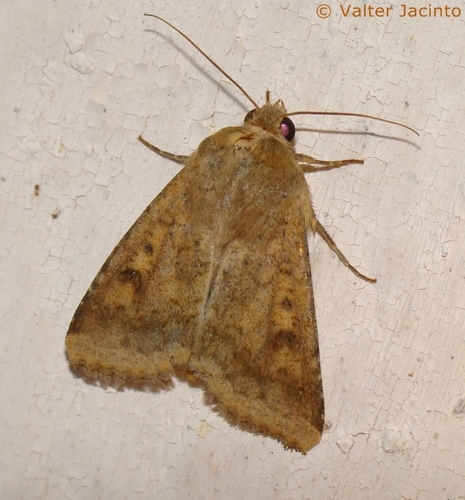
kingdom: Animalia
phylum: Arthropoda
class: Insecta
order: Lepidoptera
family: Noctuidae
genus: Helicoverpa
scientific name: Helicoverpa armigera
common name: Cotton bollworm
